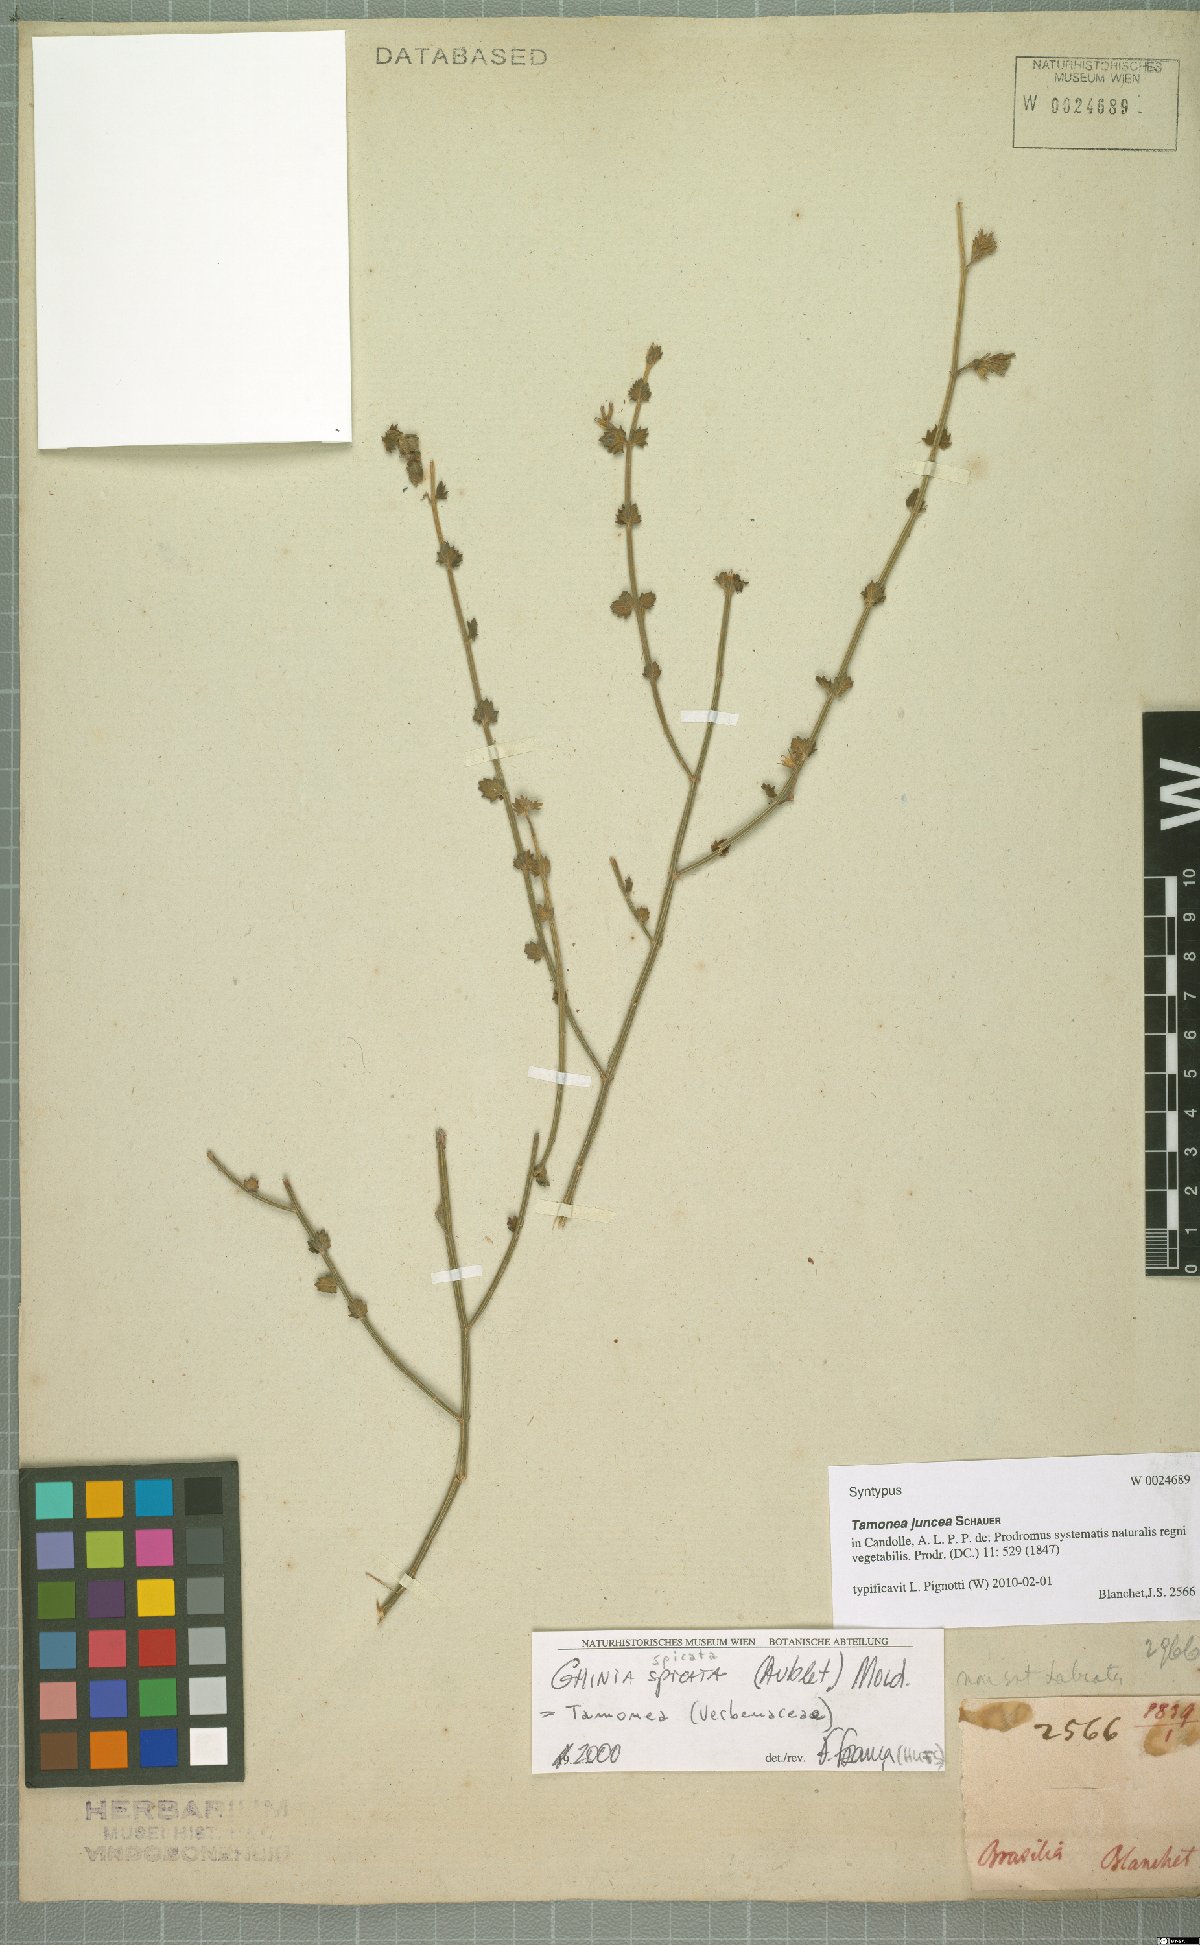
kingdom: Plantae
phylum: Tracheophyta
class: Magnoliopsida
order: Lamiales
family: Verbenaceae
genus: Tamonea
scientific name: Tamonea juncea
